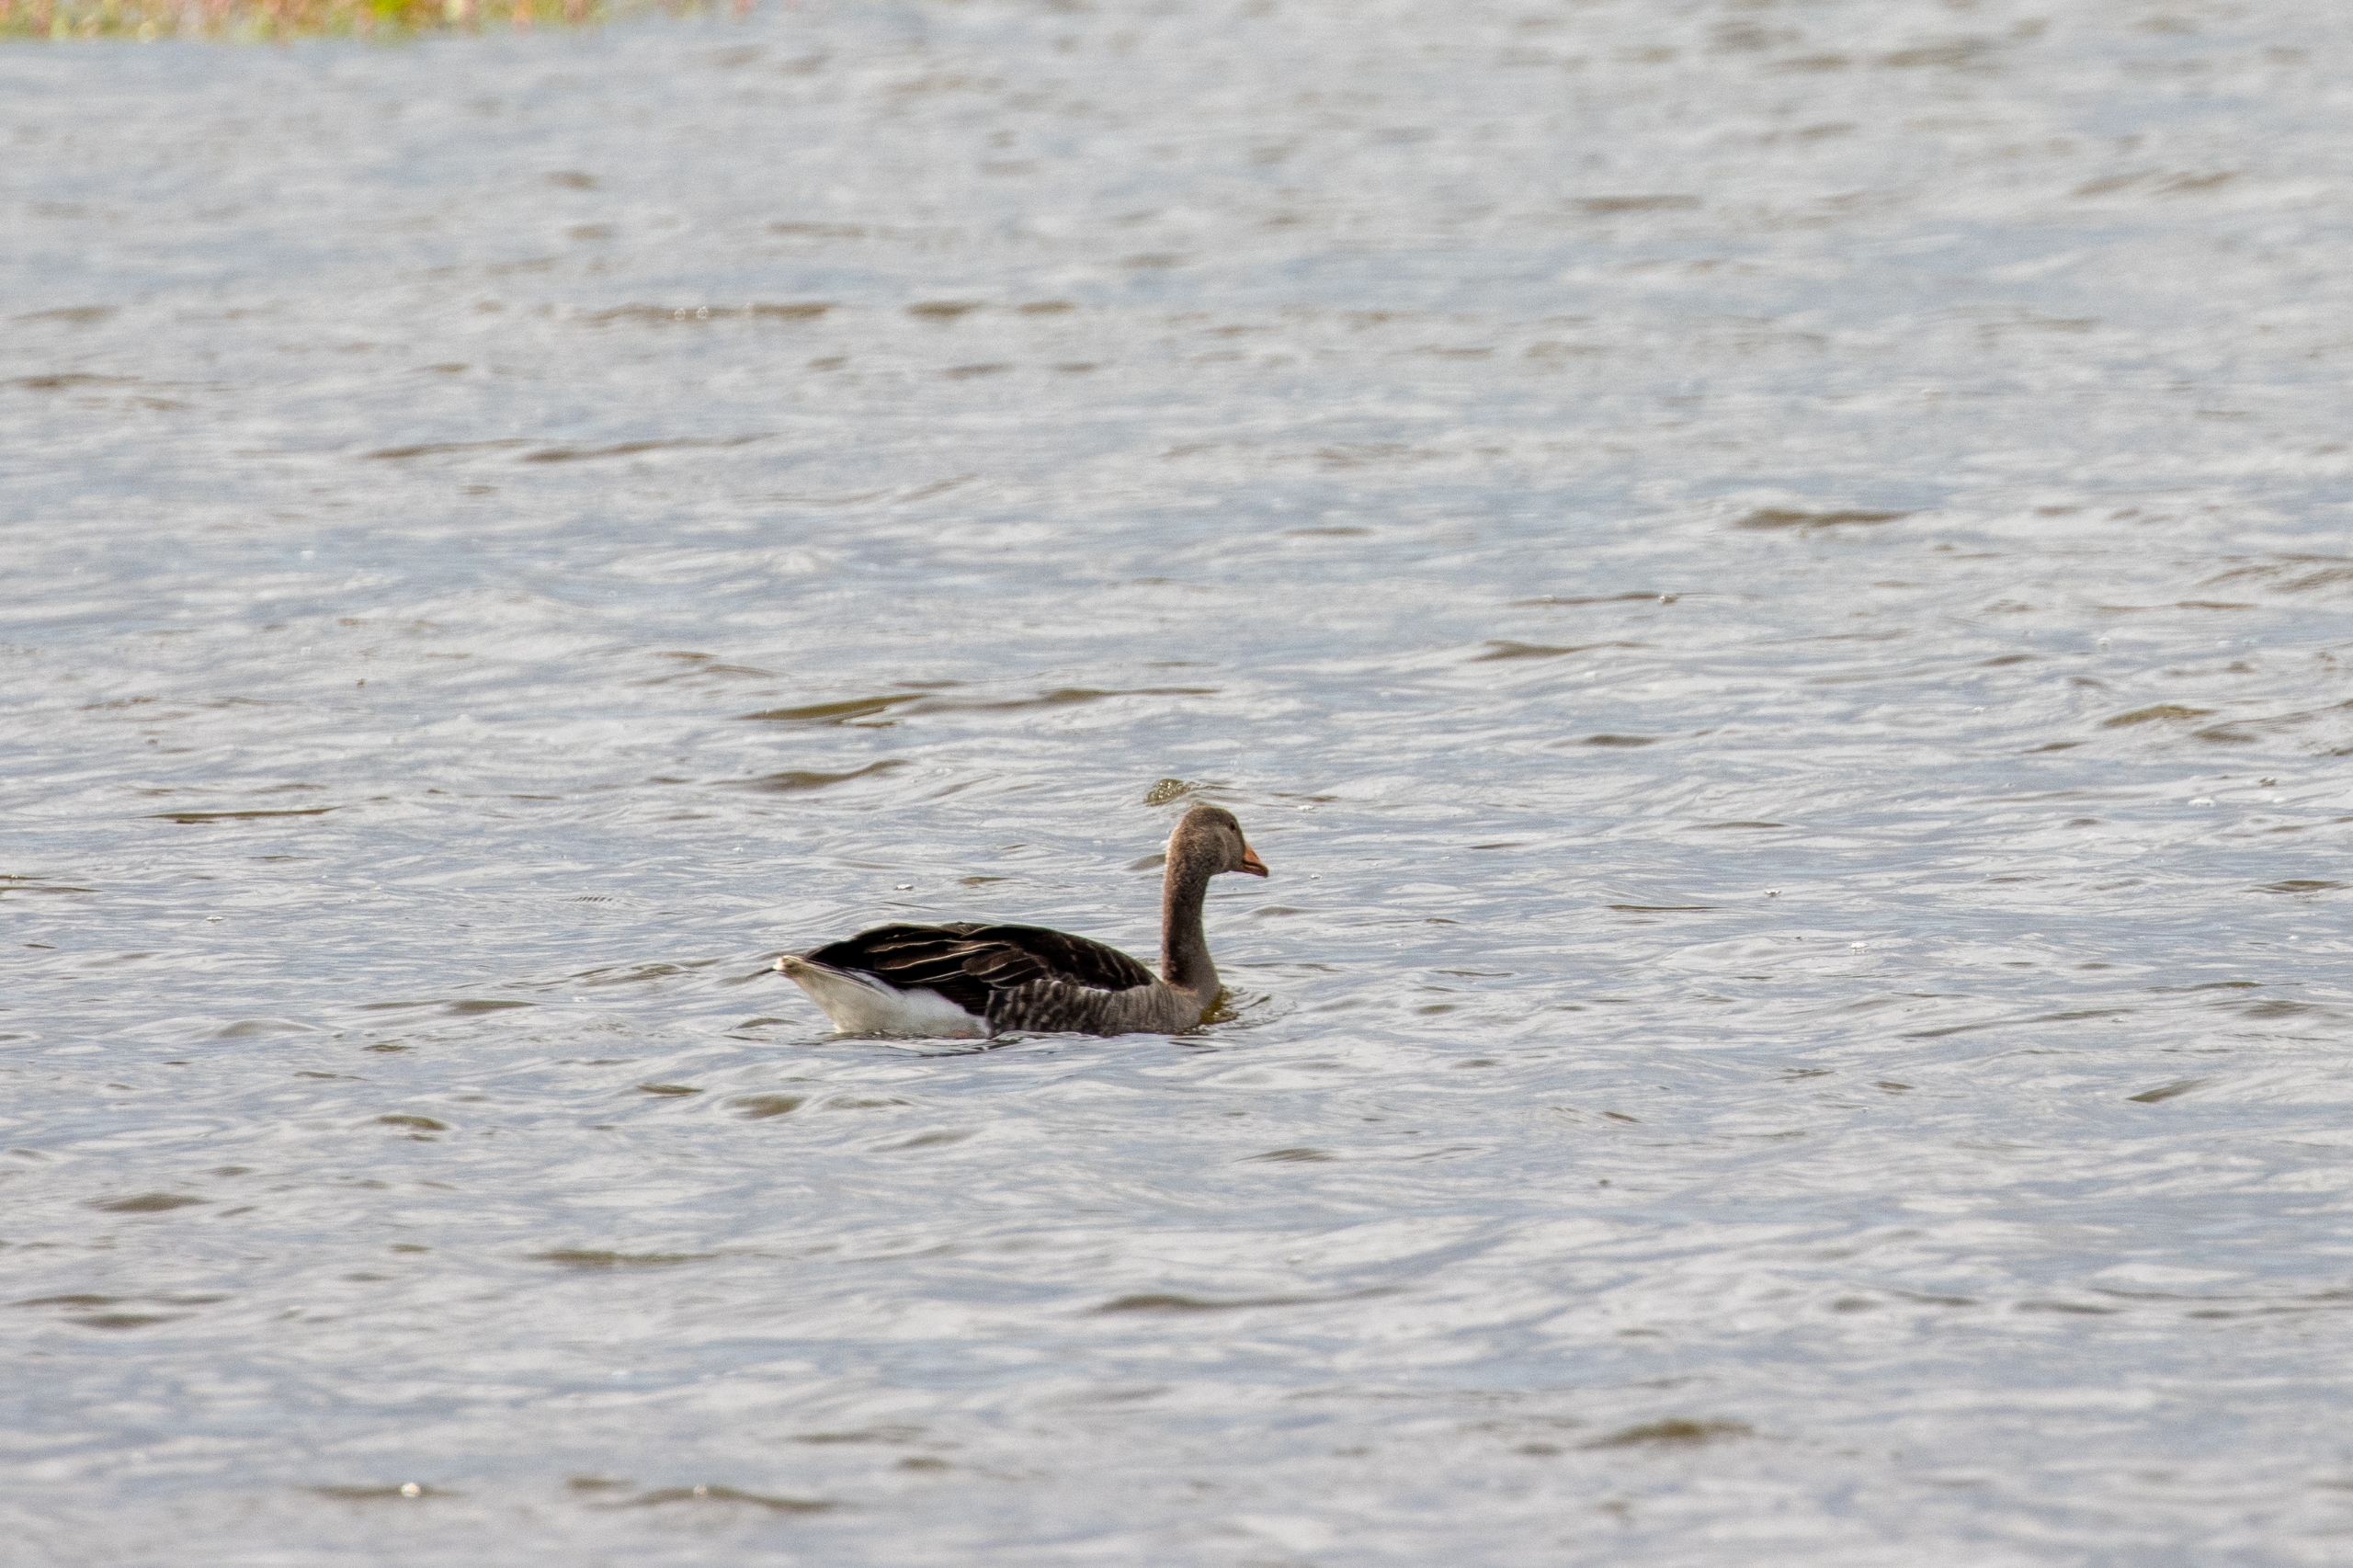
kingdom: Animalia
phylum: Chordata
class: Aves
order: Anseriformes
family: Anatidae
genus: Anser
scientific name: Anser anser
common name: Grågås
